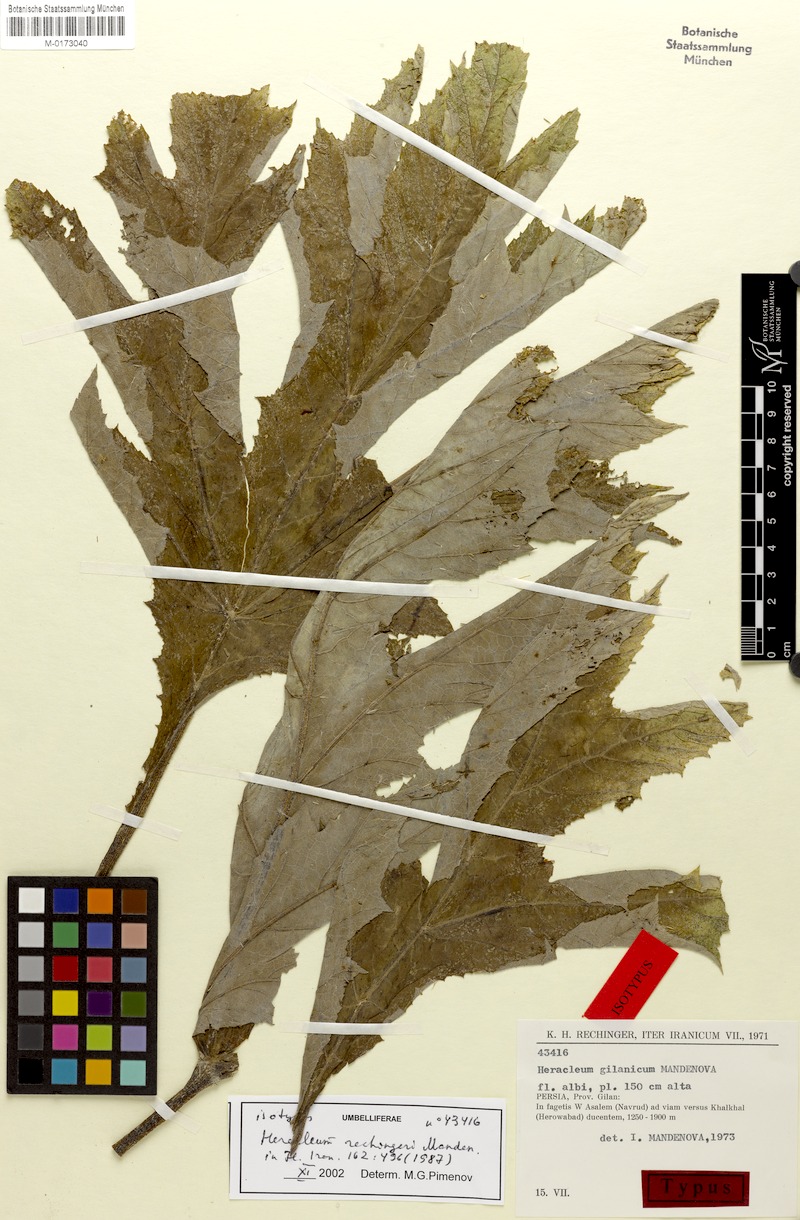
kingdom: Plantae
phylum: Tracheophyta
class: Magnoliopsida
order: Apiales
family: Apiaceae
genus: Heracleum
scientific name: Heracleum rechingeri
